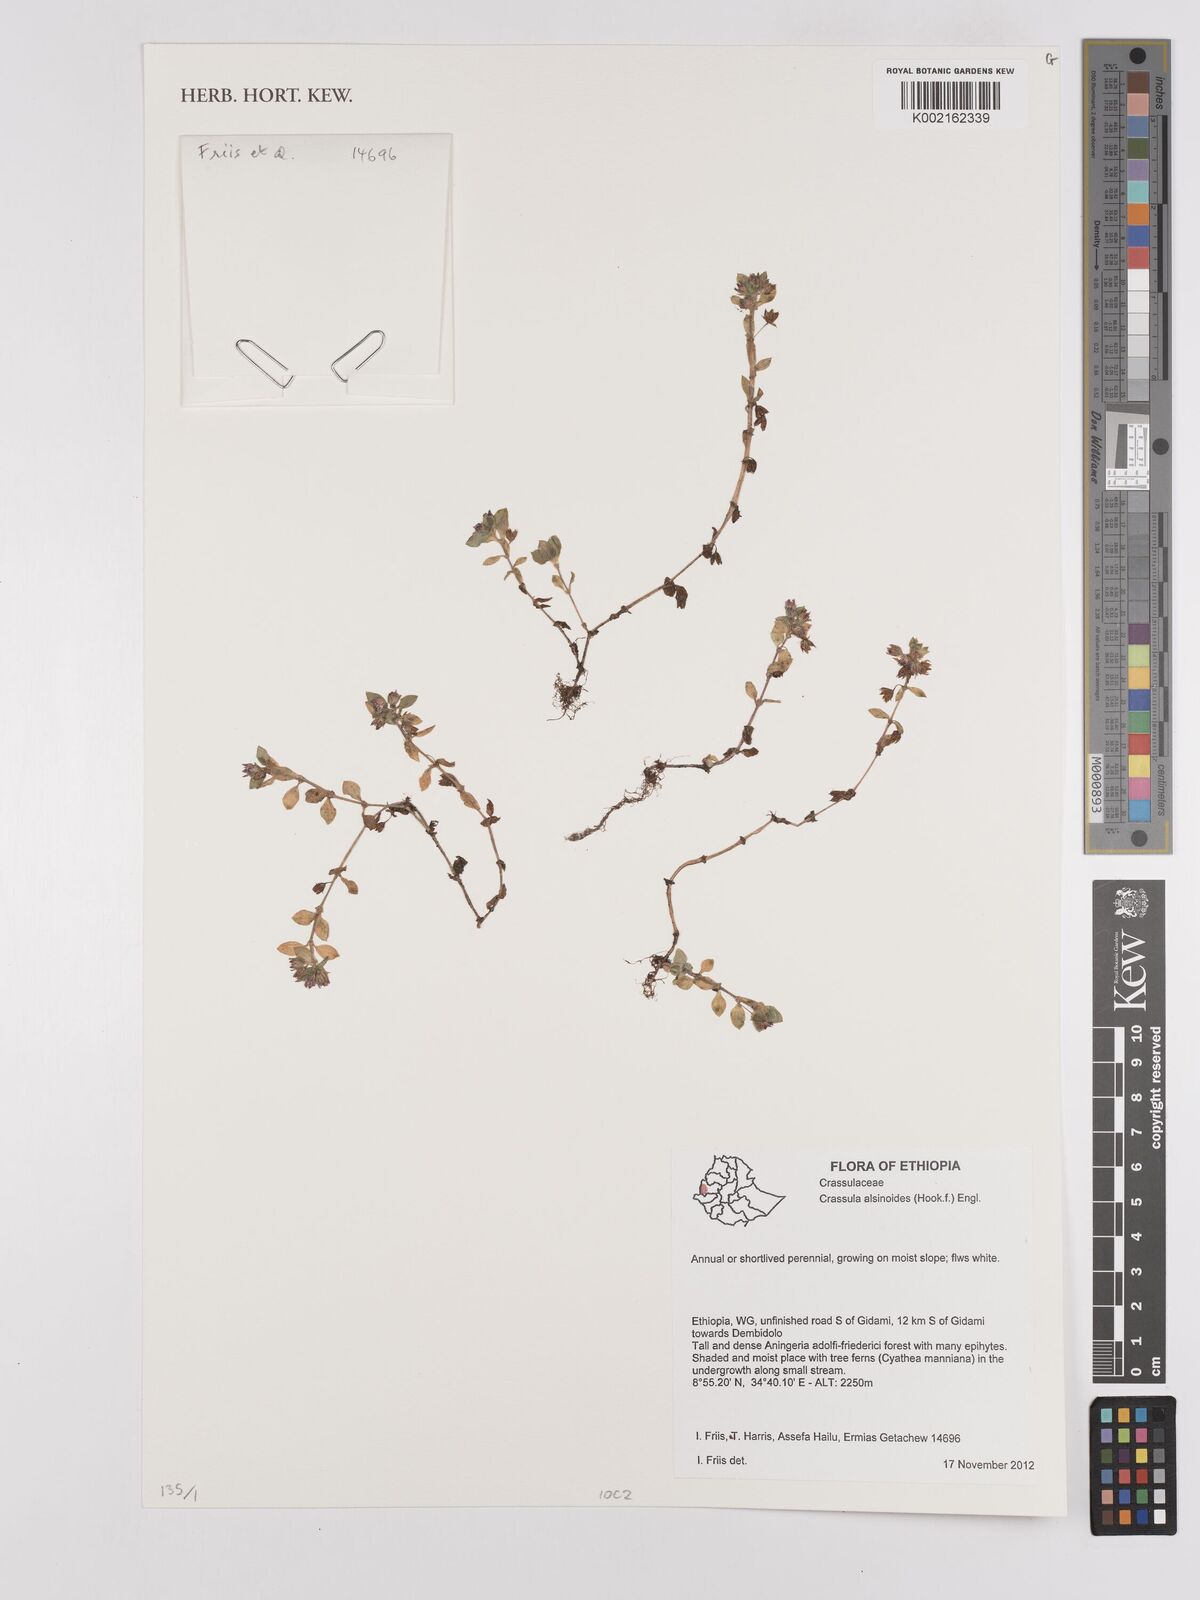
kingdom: Plantae
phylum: Tracheophyta
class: Magnoliopsida
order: Saxifragales
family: Crassulaceae
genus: Crassula
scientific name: Crassula alsinoides
